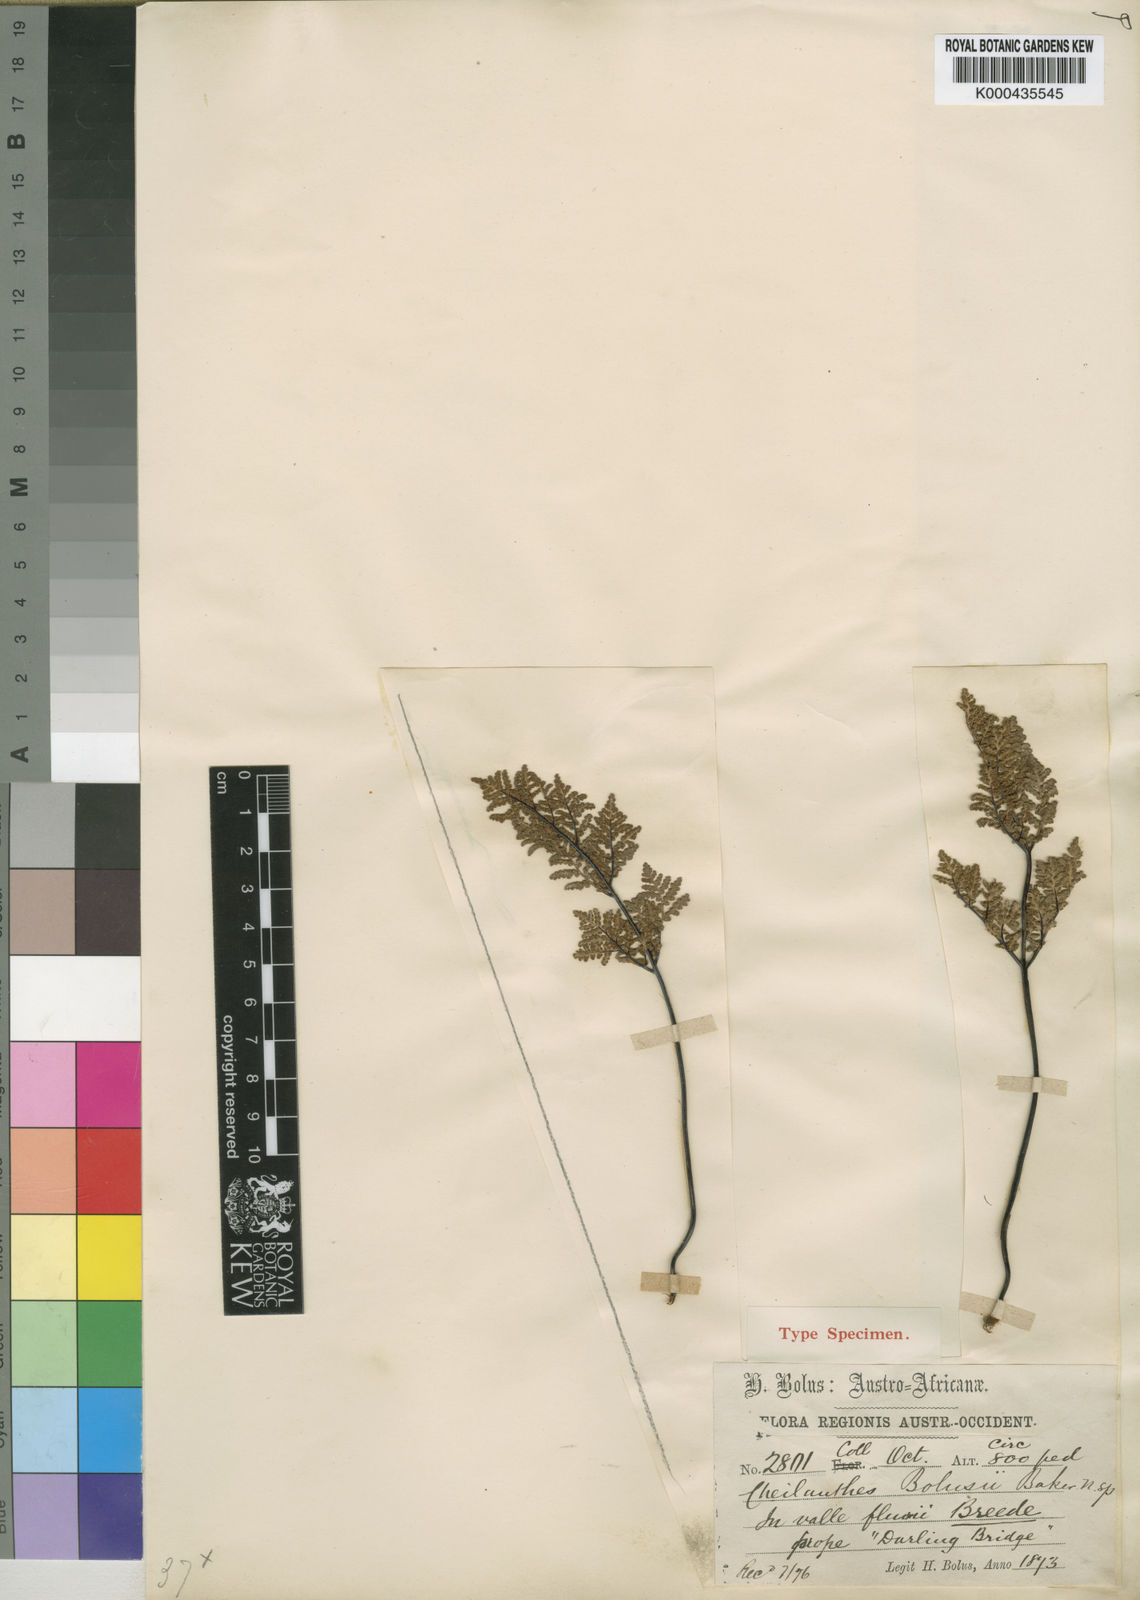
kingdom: Plantae
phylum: Tracheophyta
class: Polypodiopsida
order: Polypodiales
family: Pteridaceae
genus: Cheilanthes
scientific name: Cheilanthes multifida
